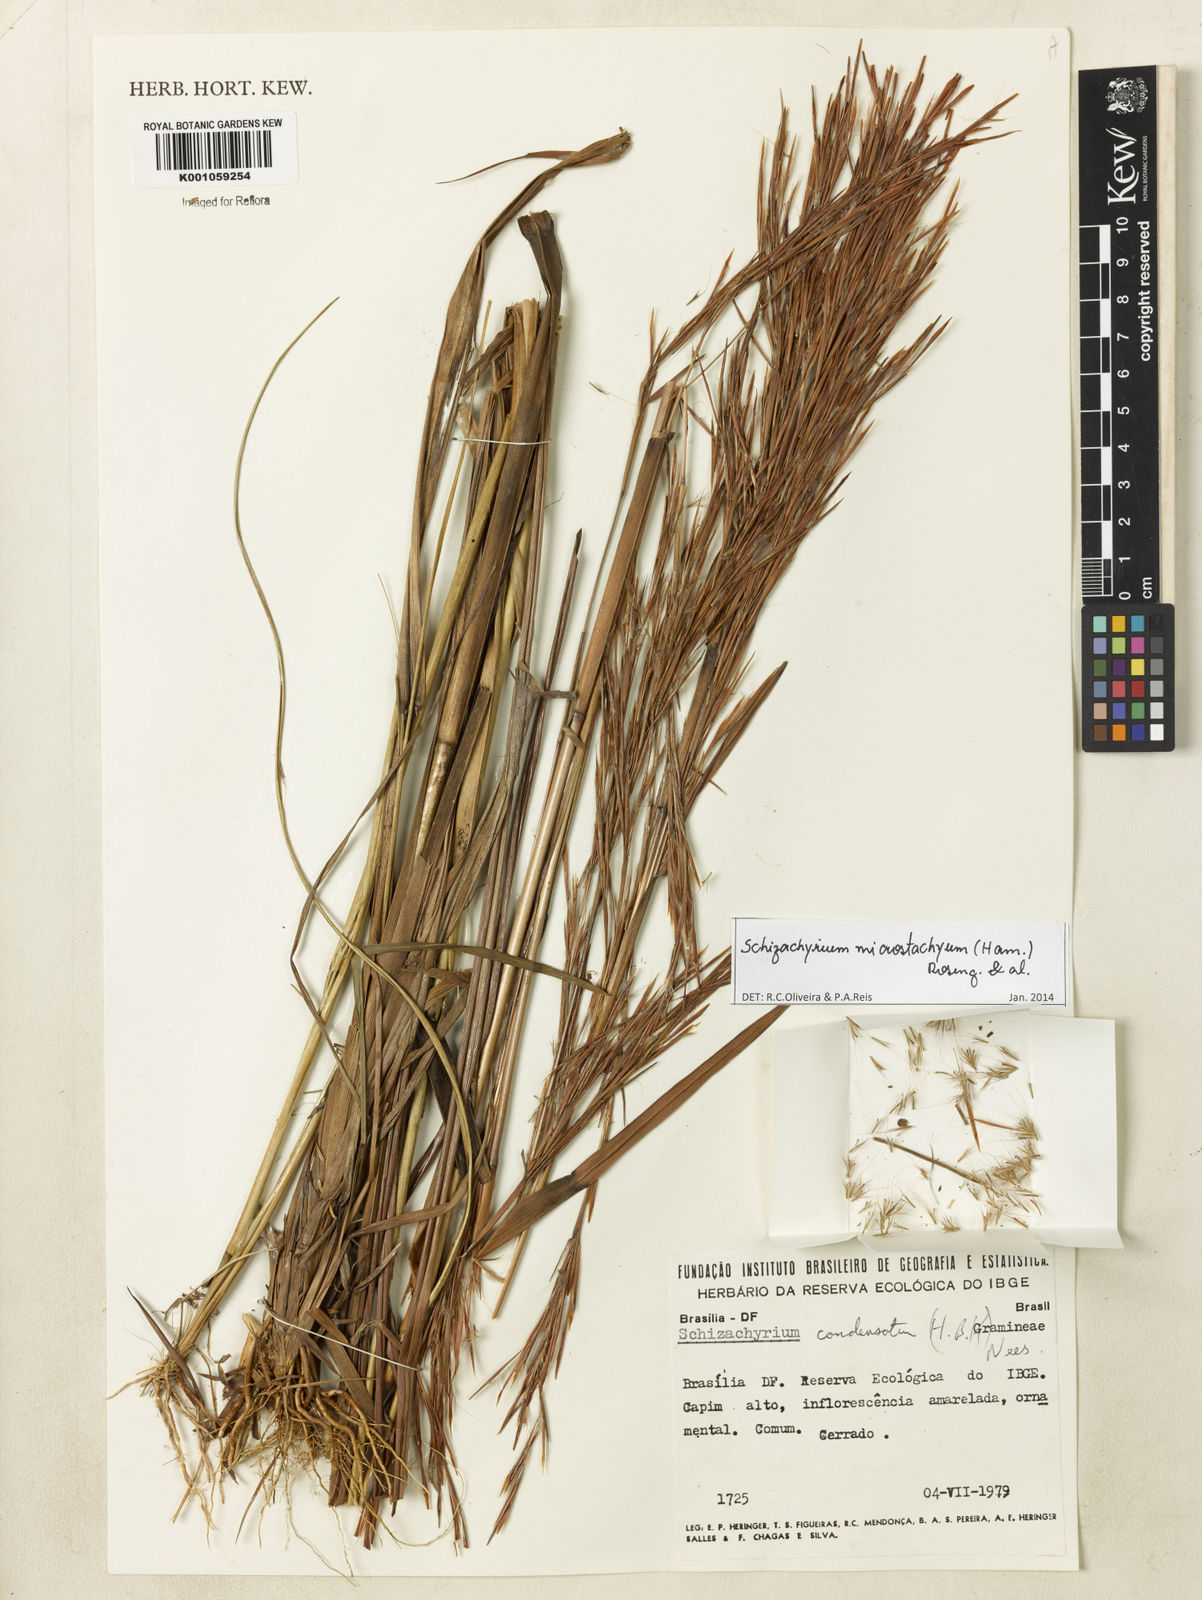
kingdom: Plantae
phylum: Tracheophyta
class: Liliopsida
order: Poales
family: Poaceae
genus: Schizachyrium
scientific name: Schizachyrium
